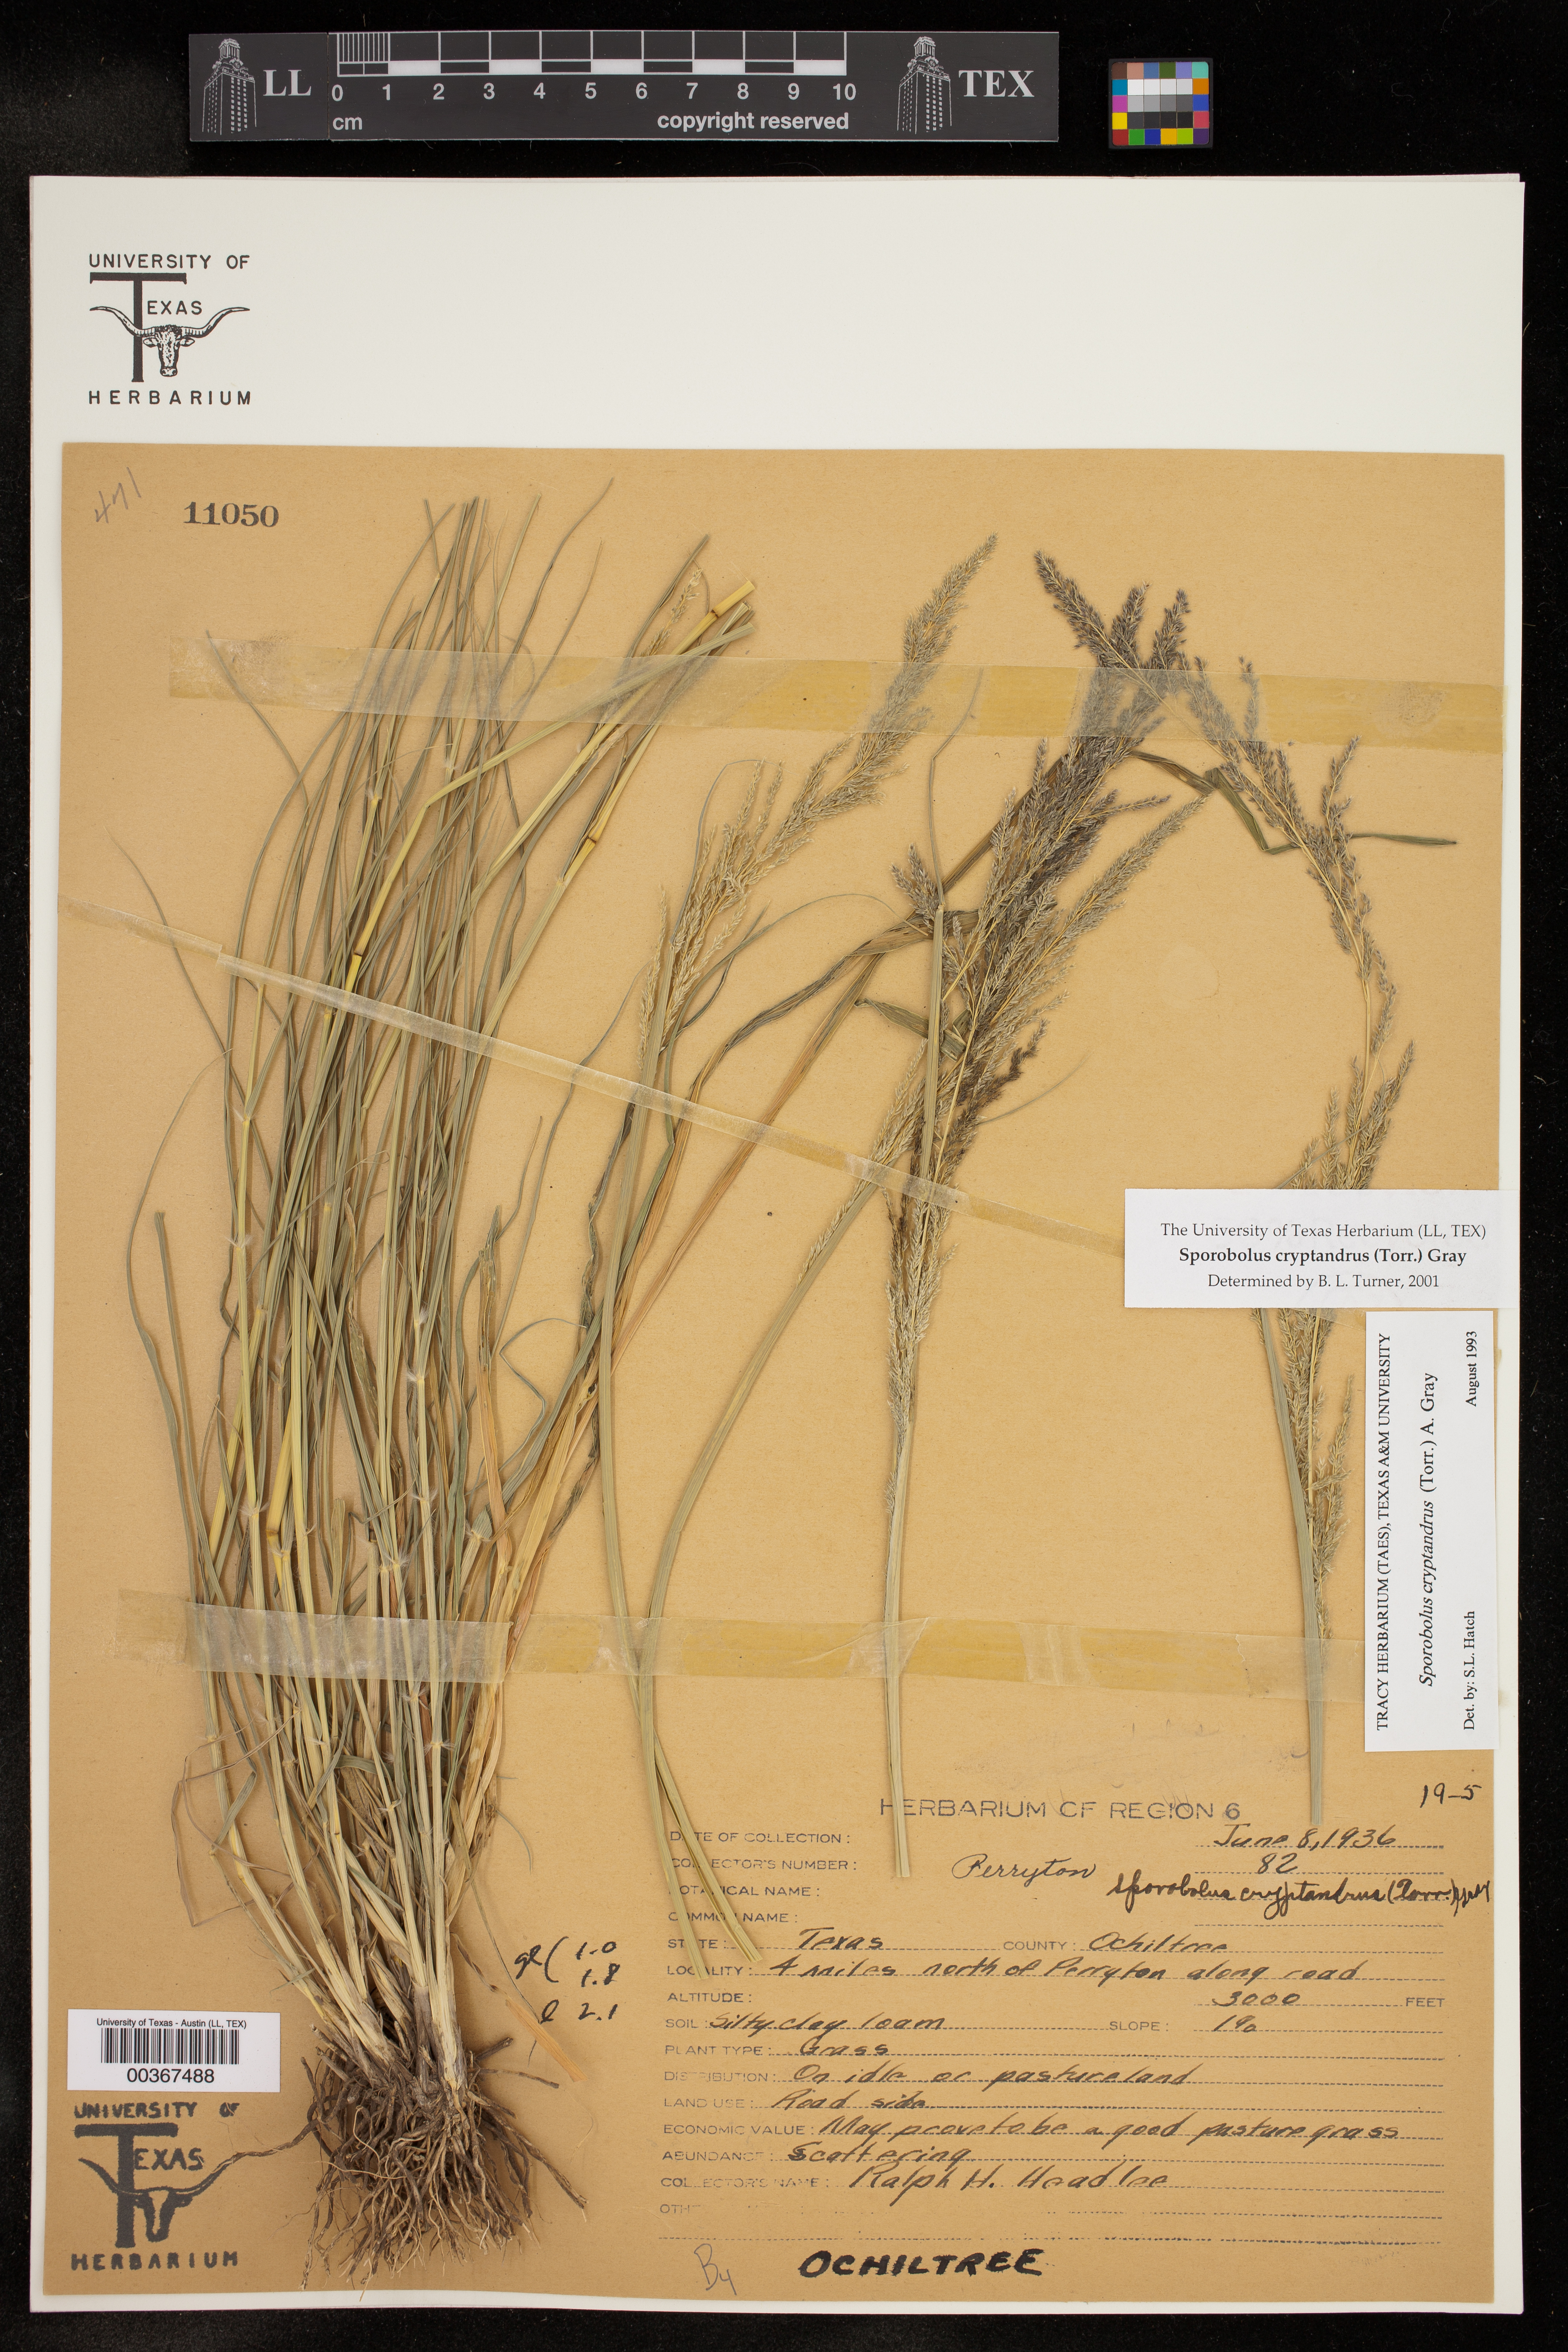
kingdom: Plantae
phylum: Tracheophyta
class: Liliopsida
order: Poales
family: Poaceae
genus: Sporobolus
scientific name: Sporobolus cryptandrus
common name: Sand dropseed
